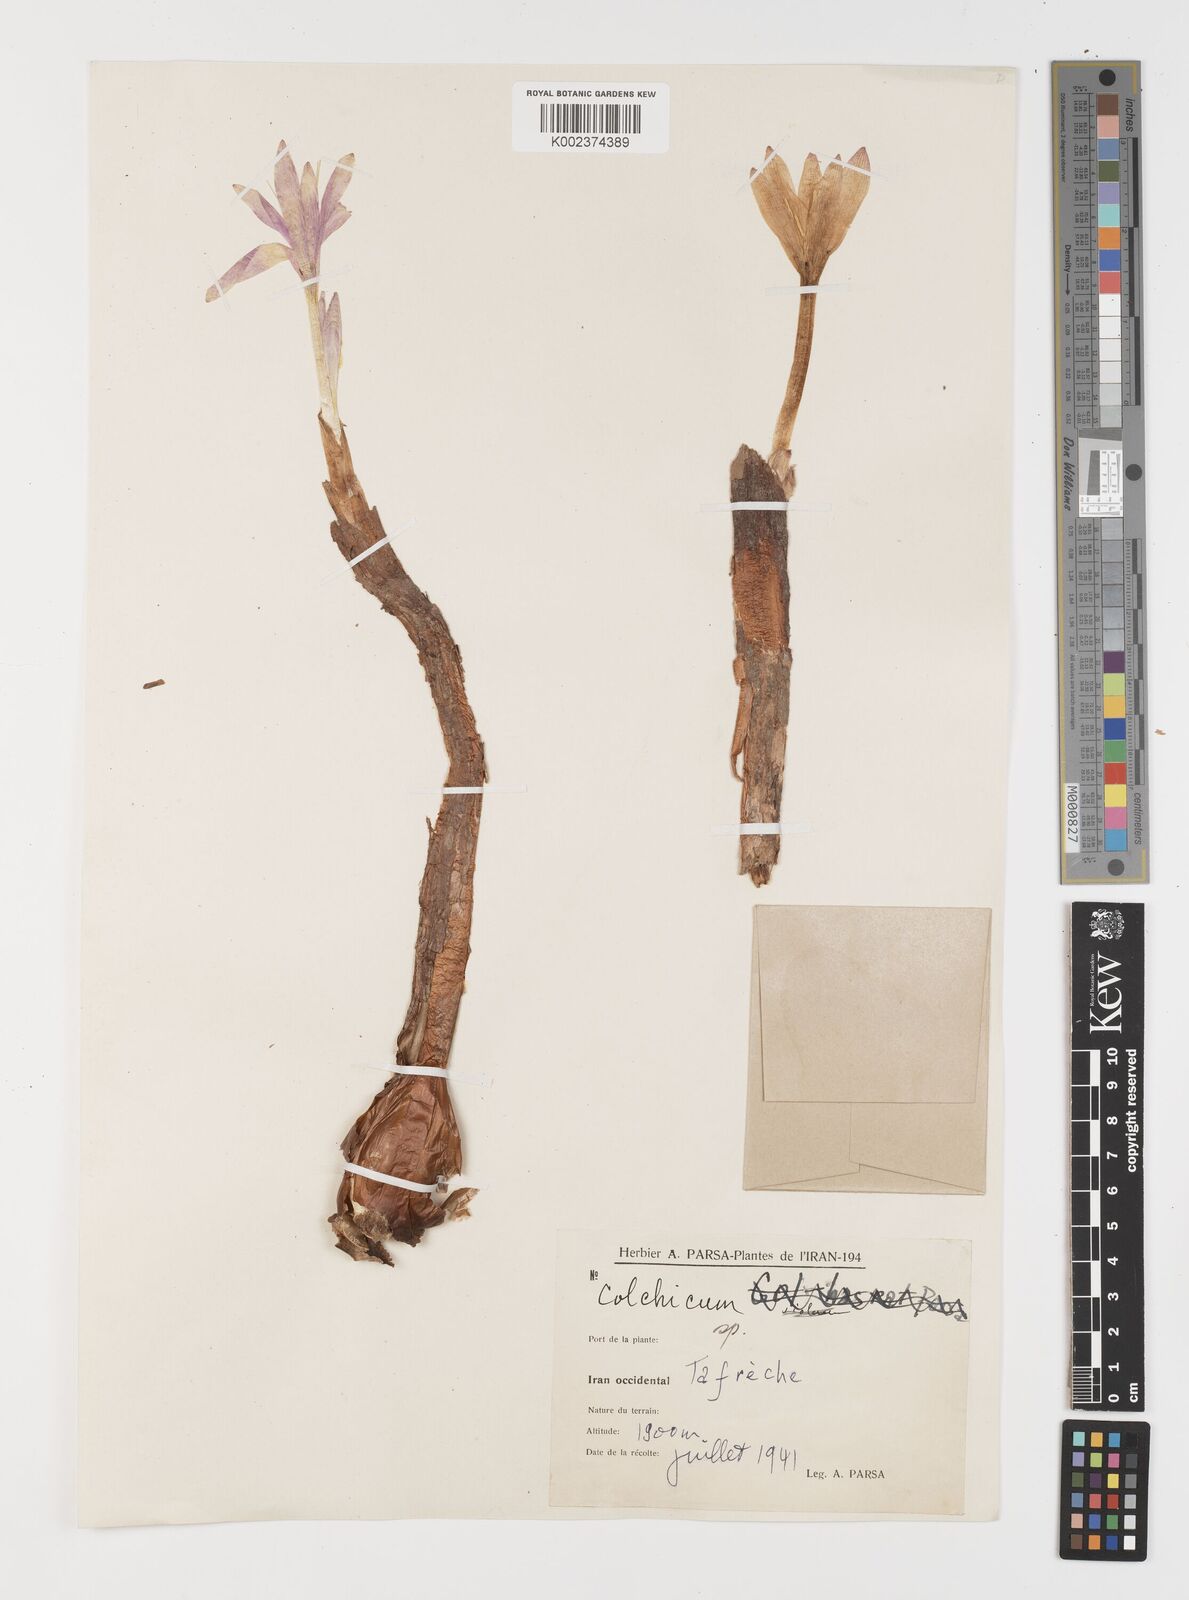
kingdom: Plantae
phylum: Tracheophyta
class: Liliopsida
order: Liliales
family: Colchicaceae
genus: Colchicum
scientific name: Colchicum
